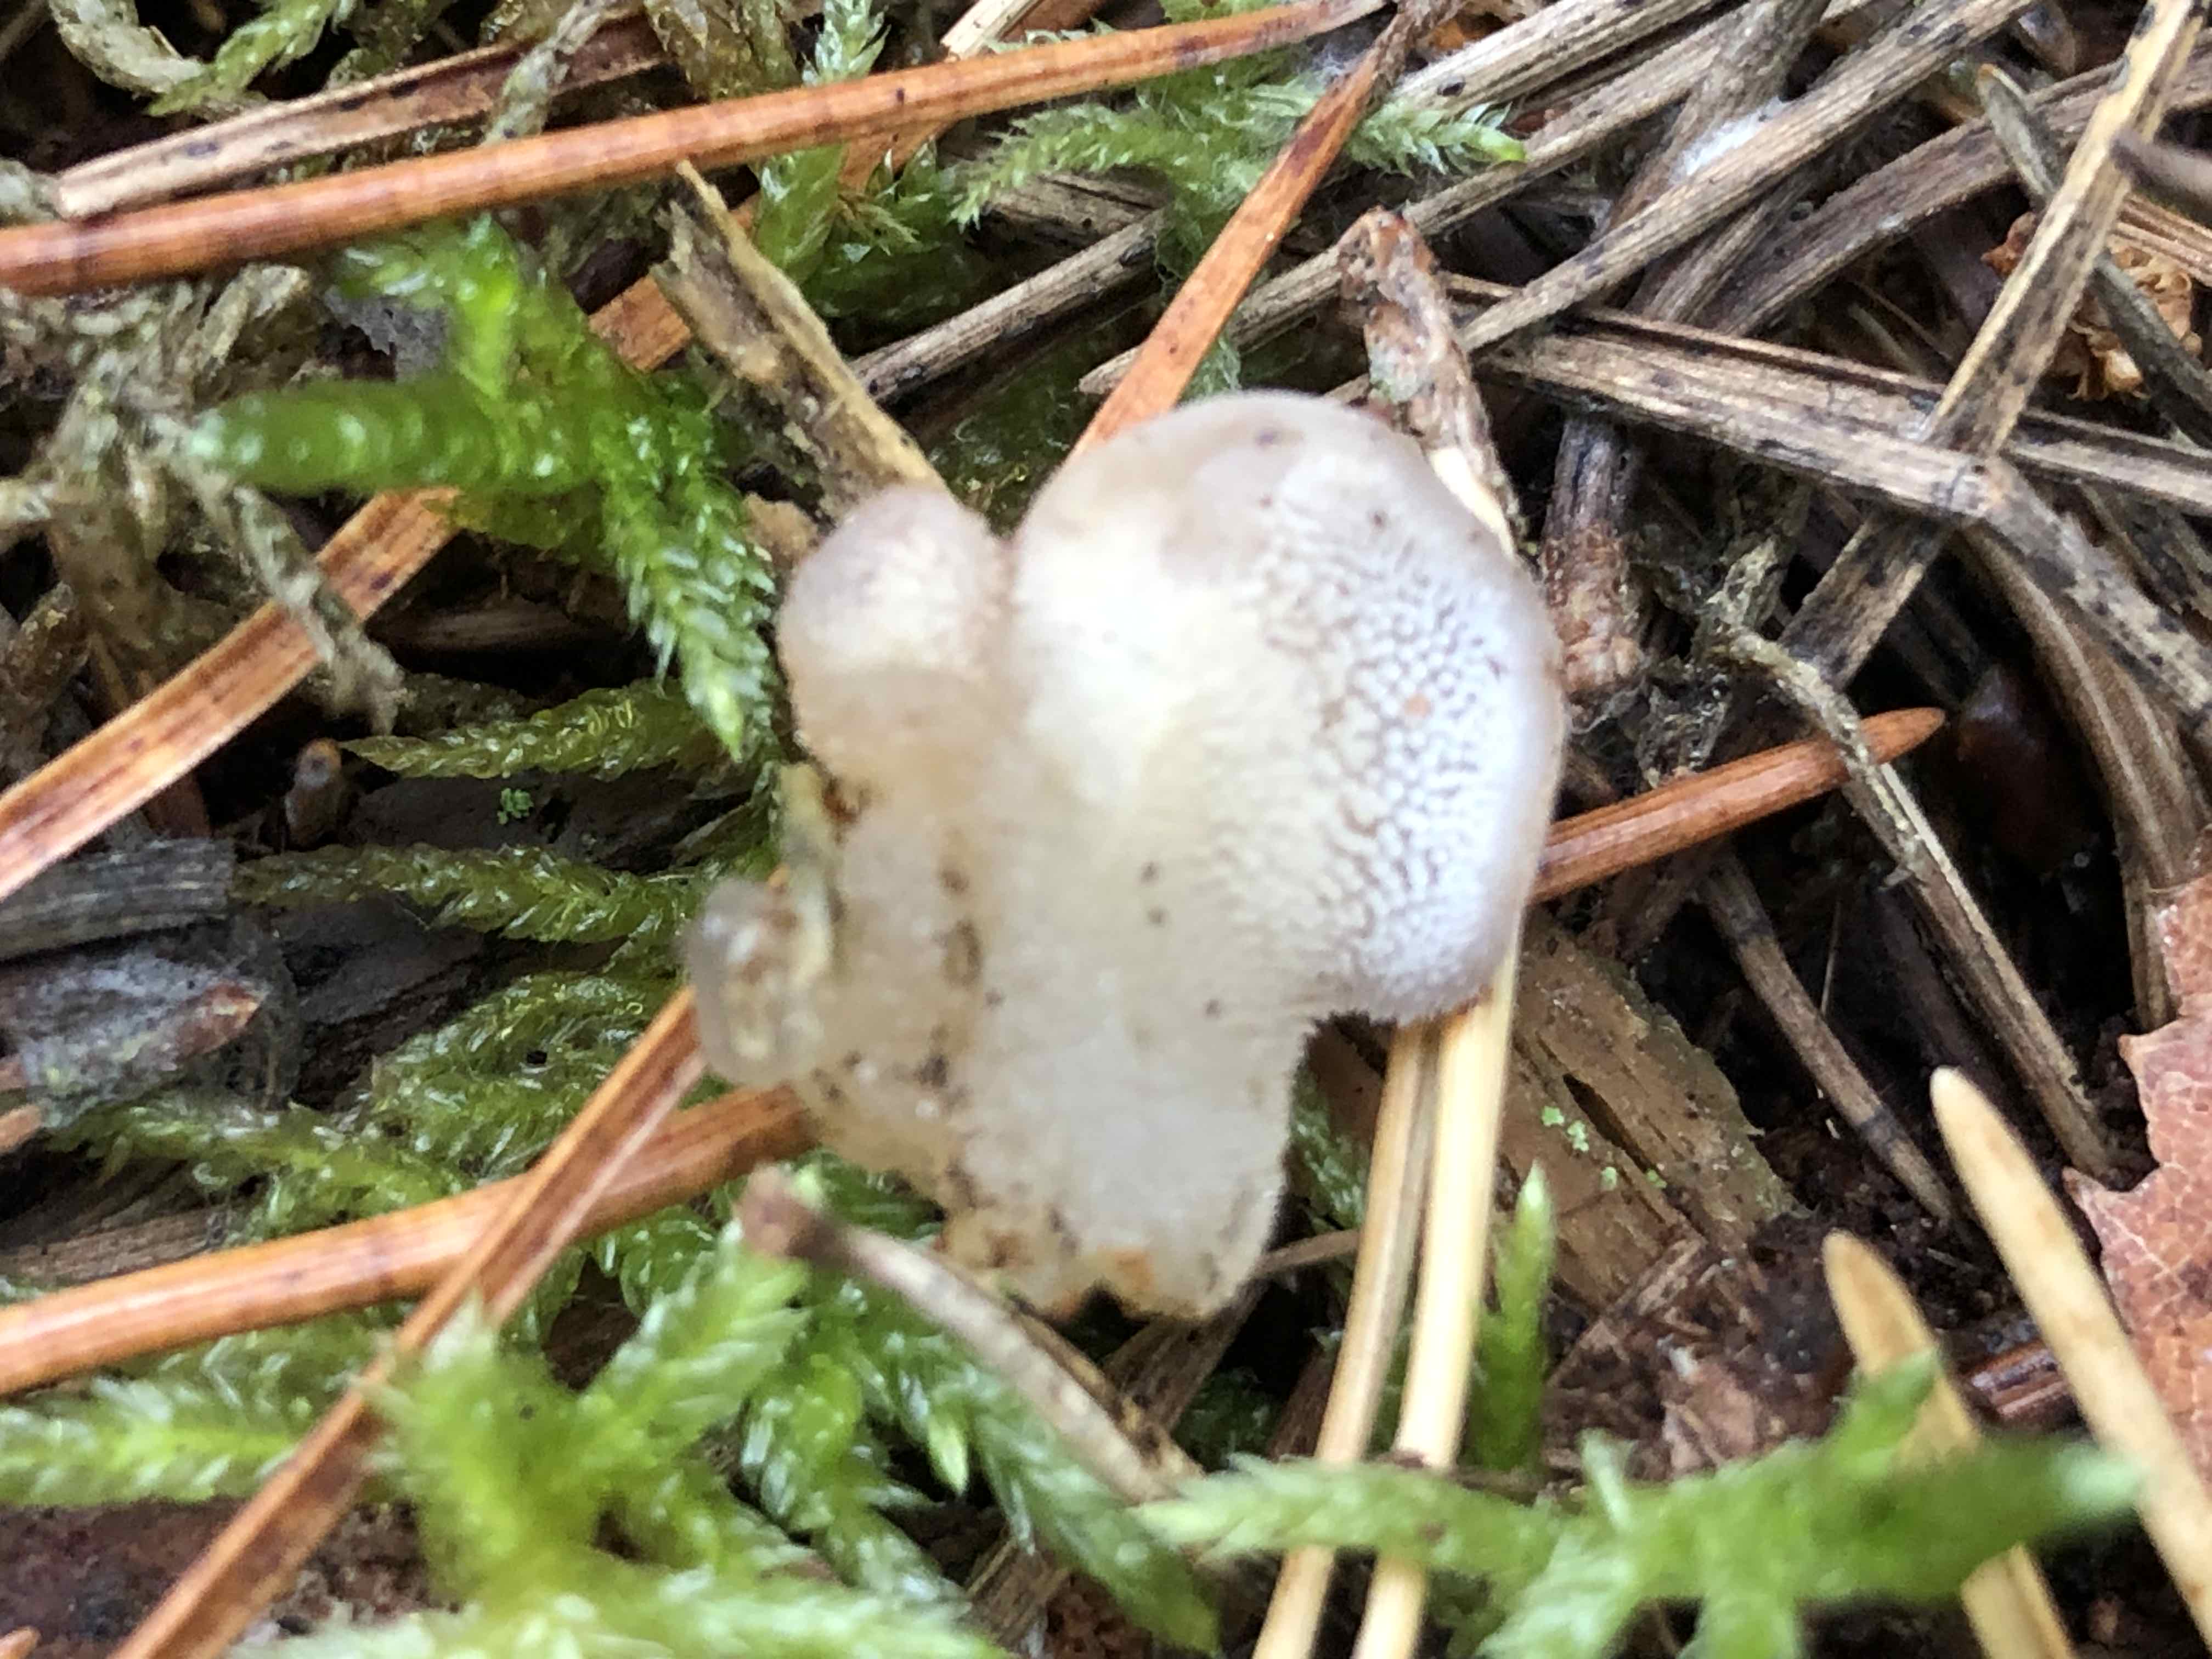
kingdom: Fungi
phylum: Basidiomycota
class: Agaricomycetes
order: Auriculariales
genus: Pseudohydnum
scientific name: Pseudohydnum gelatinosum
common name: bævretand
